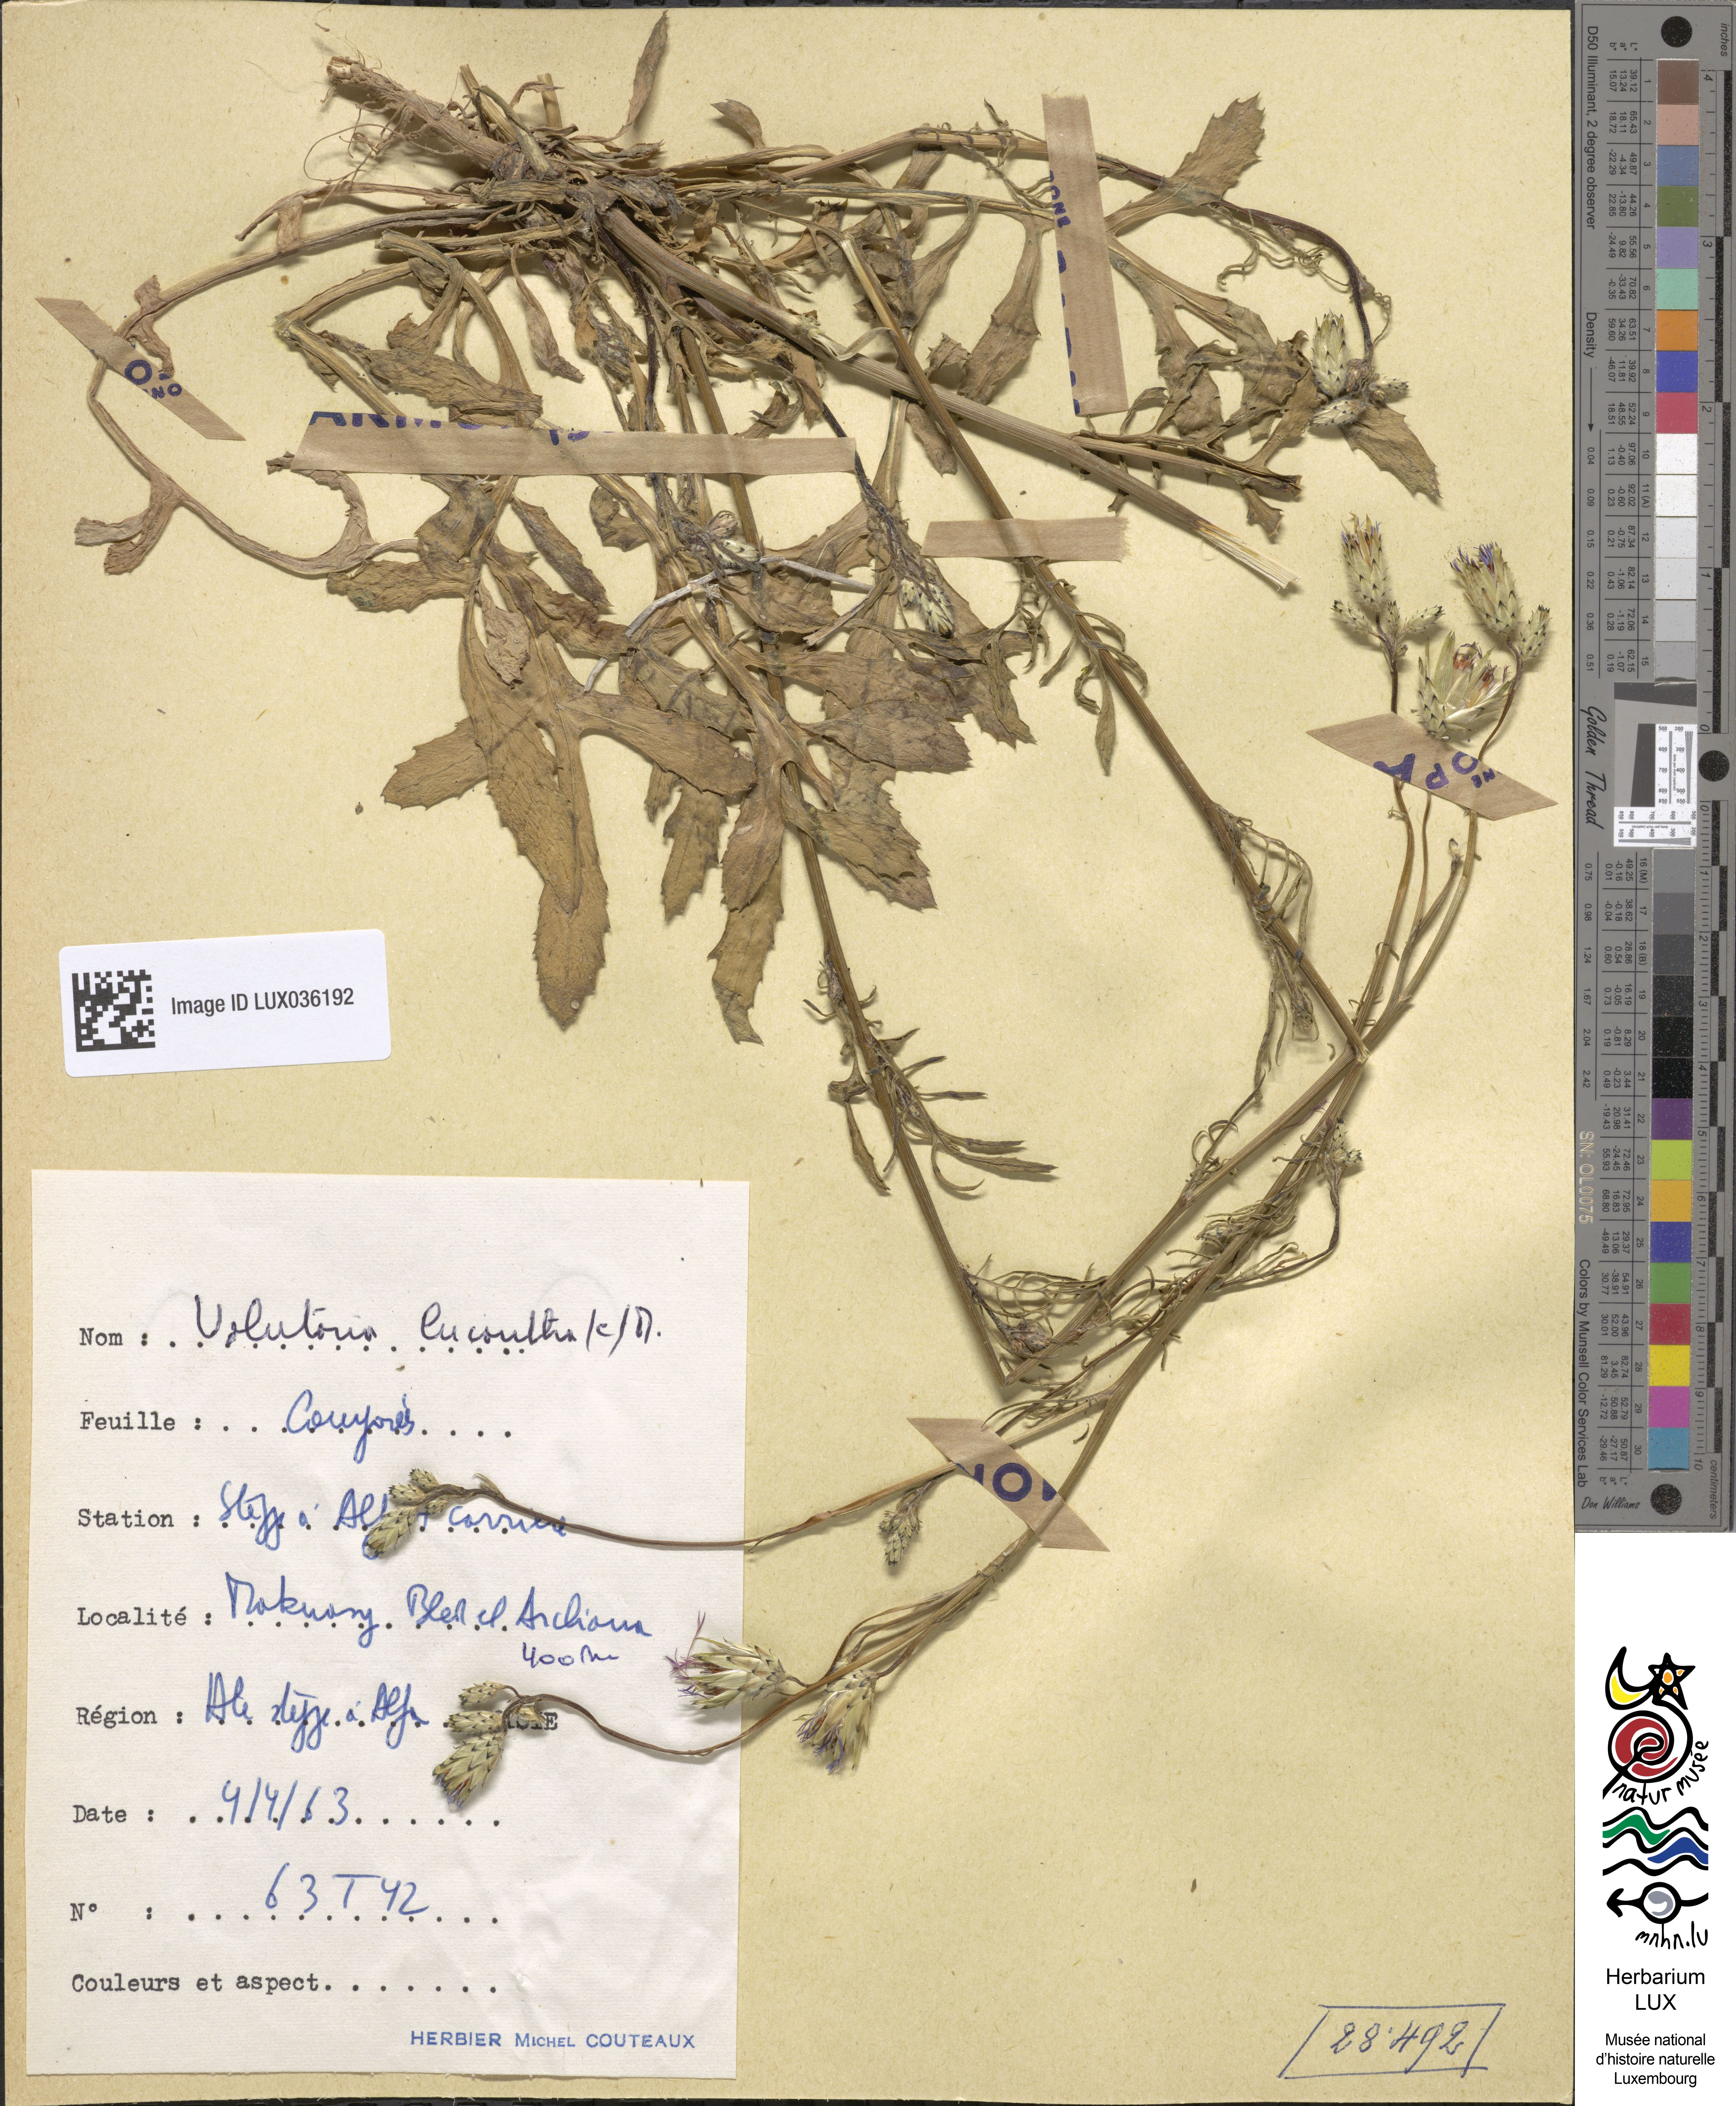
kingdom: Plantae
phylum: Tracheophyta
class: Magnoliopsida
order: Asterales
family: Asteraceae
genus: Volutaria
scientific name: Volutaria sinaica
